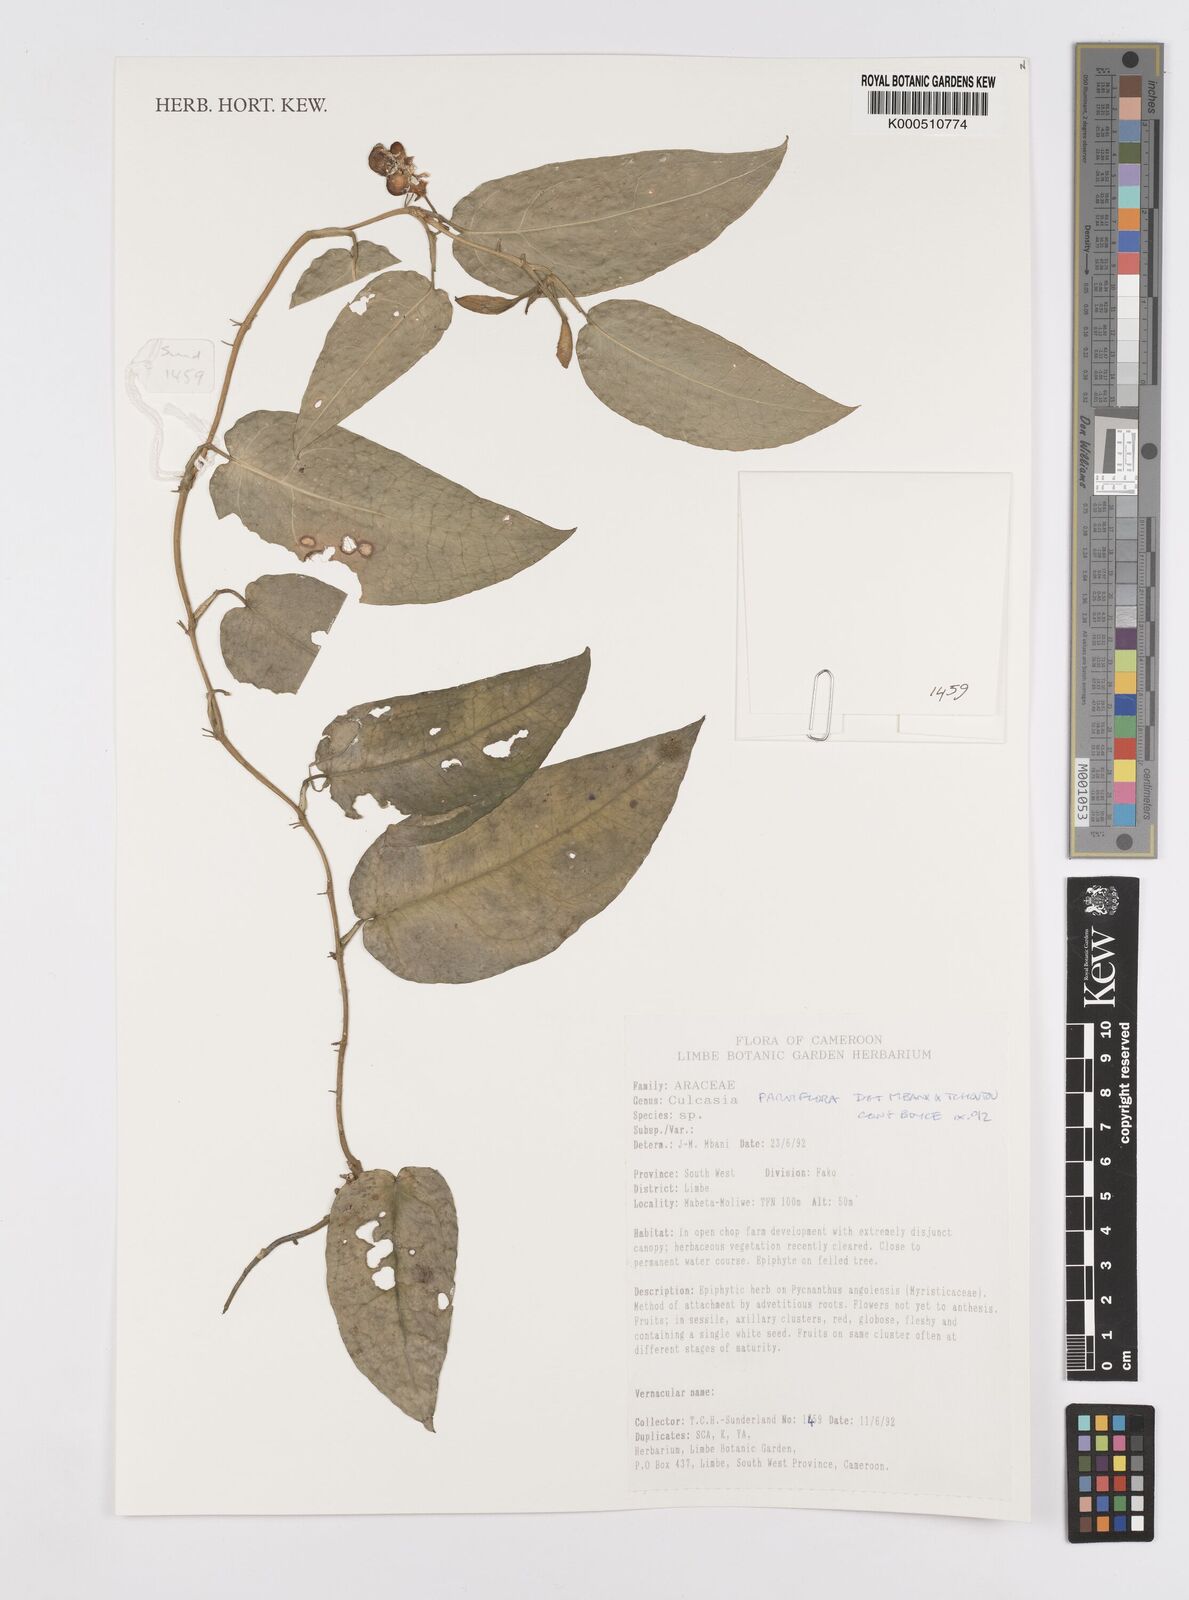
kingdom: Plantae
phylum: Tracheophyta
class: Liliopsida
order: Alismatales
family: Araceae
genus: Culcasia
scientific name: Culcasia parviflora
